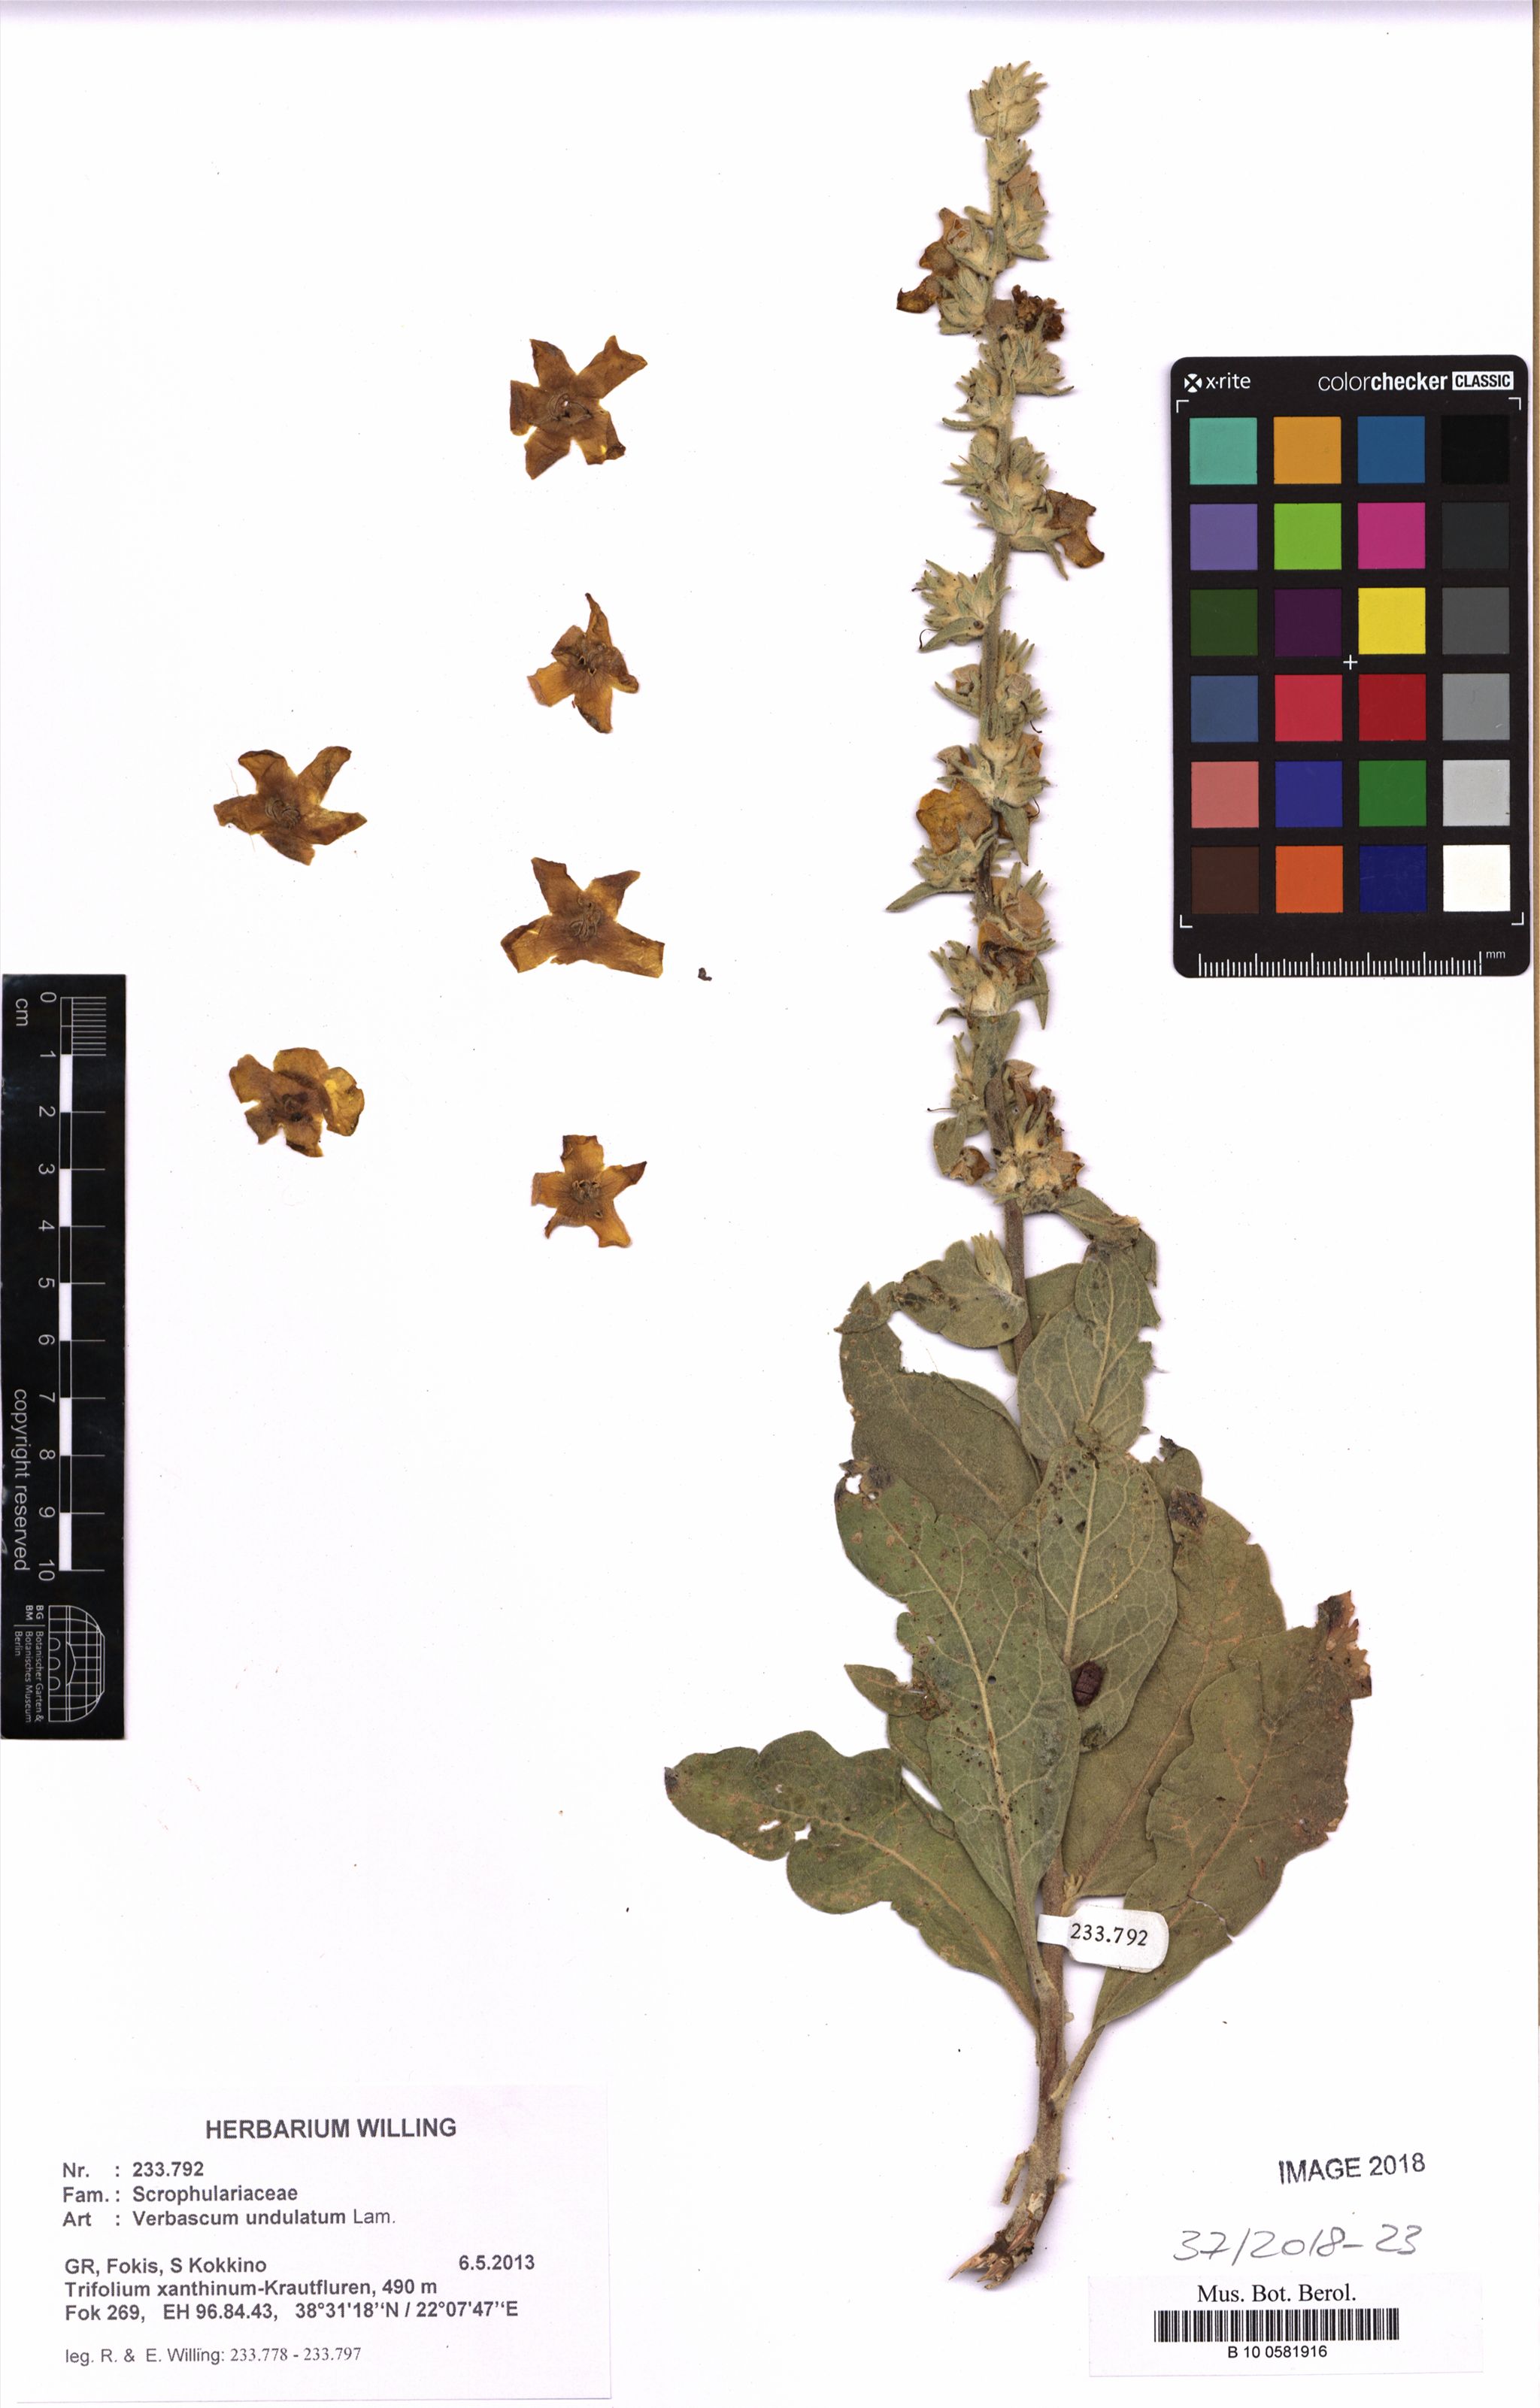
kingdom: Plantae
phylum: Tracheophyta
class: Magnoliopsida
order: Lamiales
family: Scrophulariaceae
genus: Verbascum
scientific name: Verbascum undulatum
